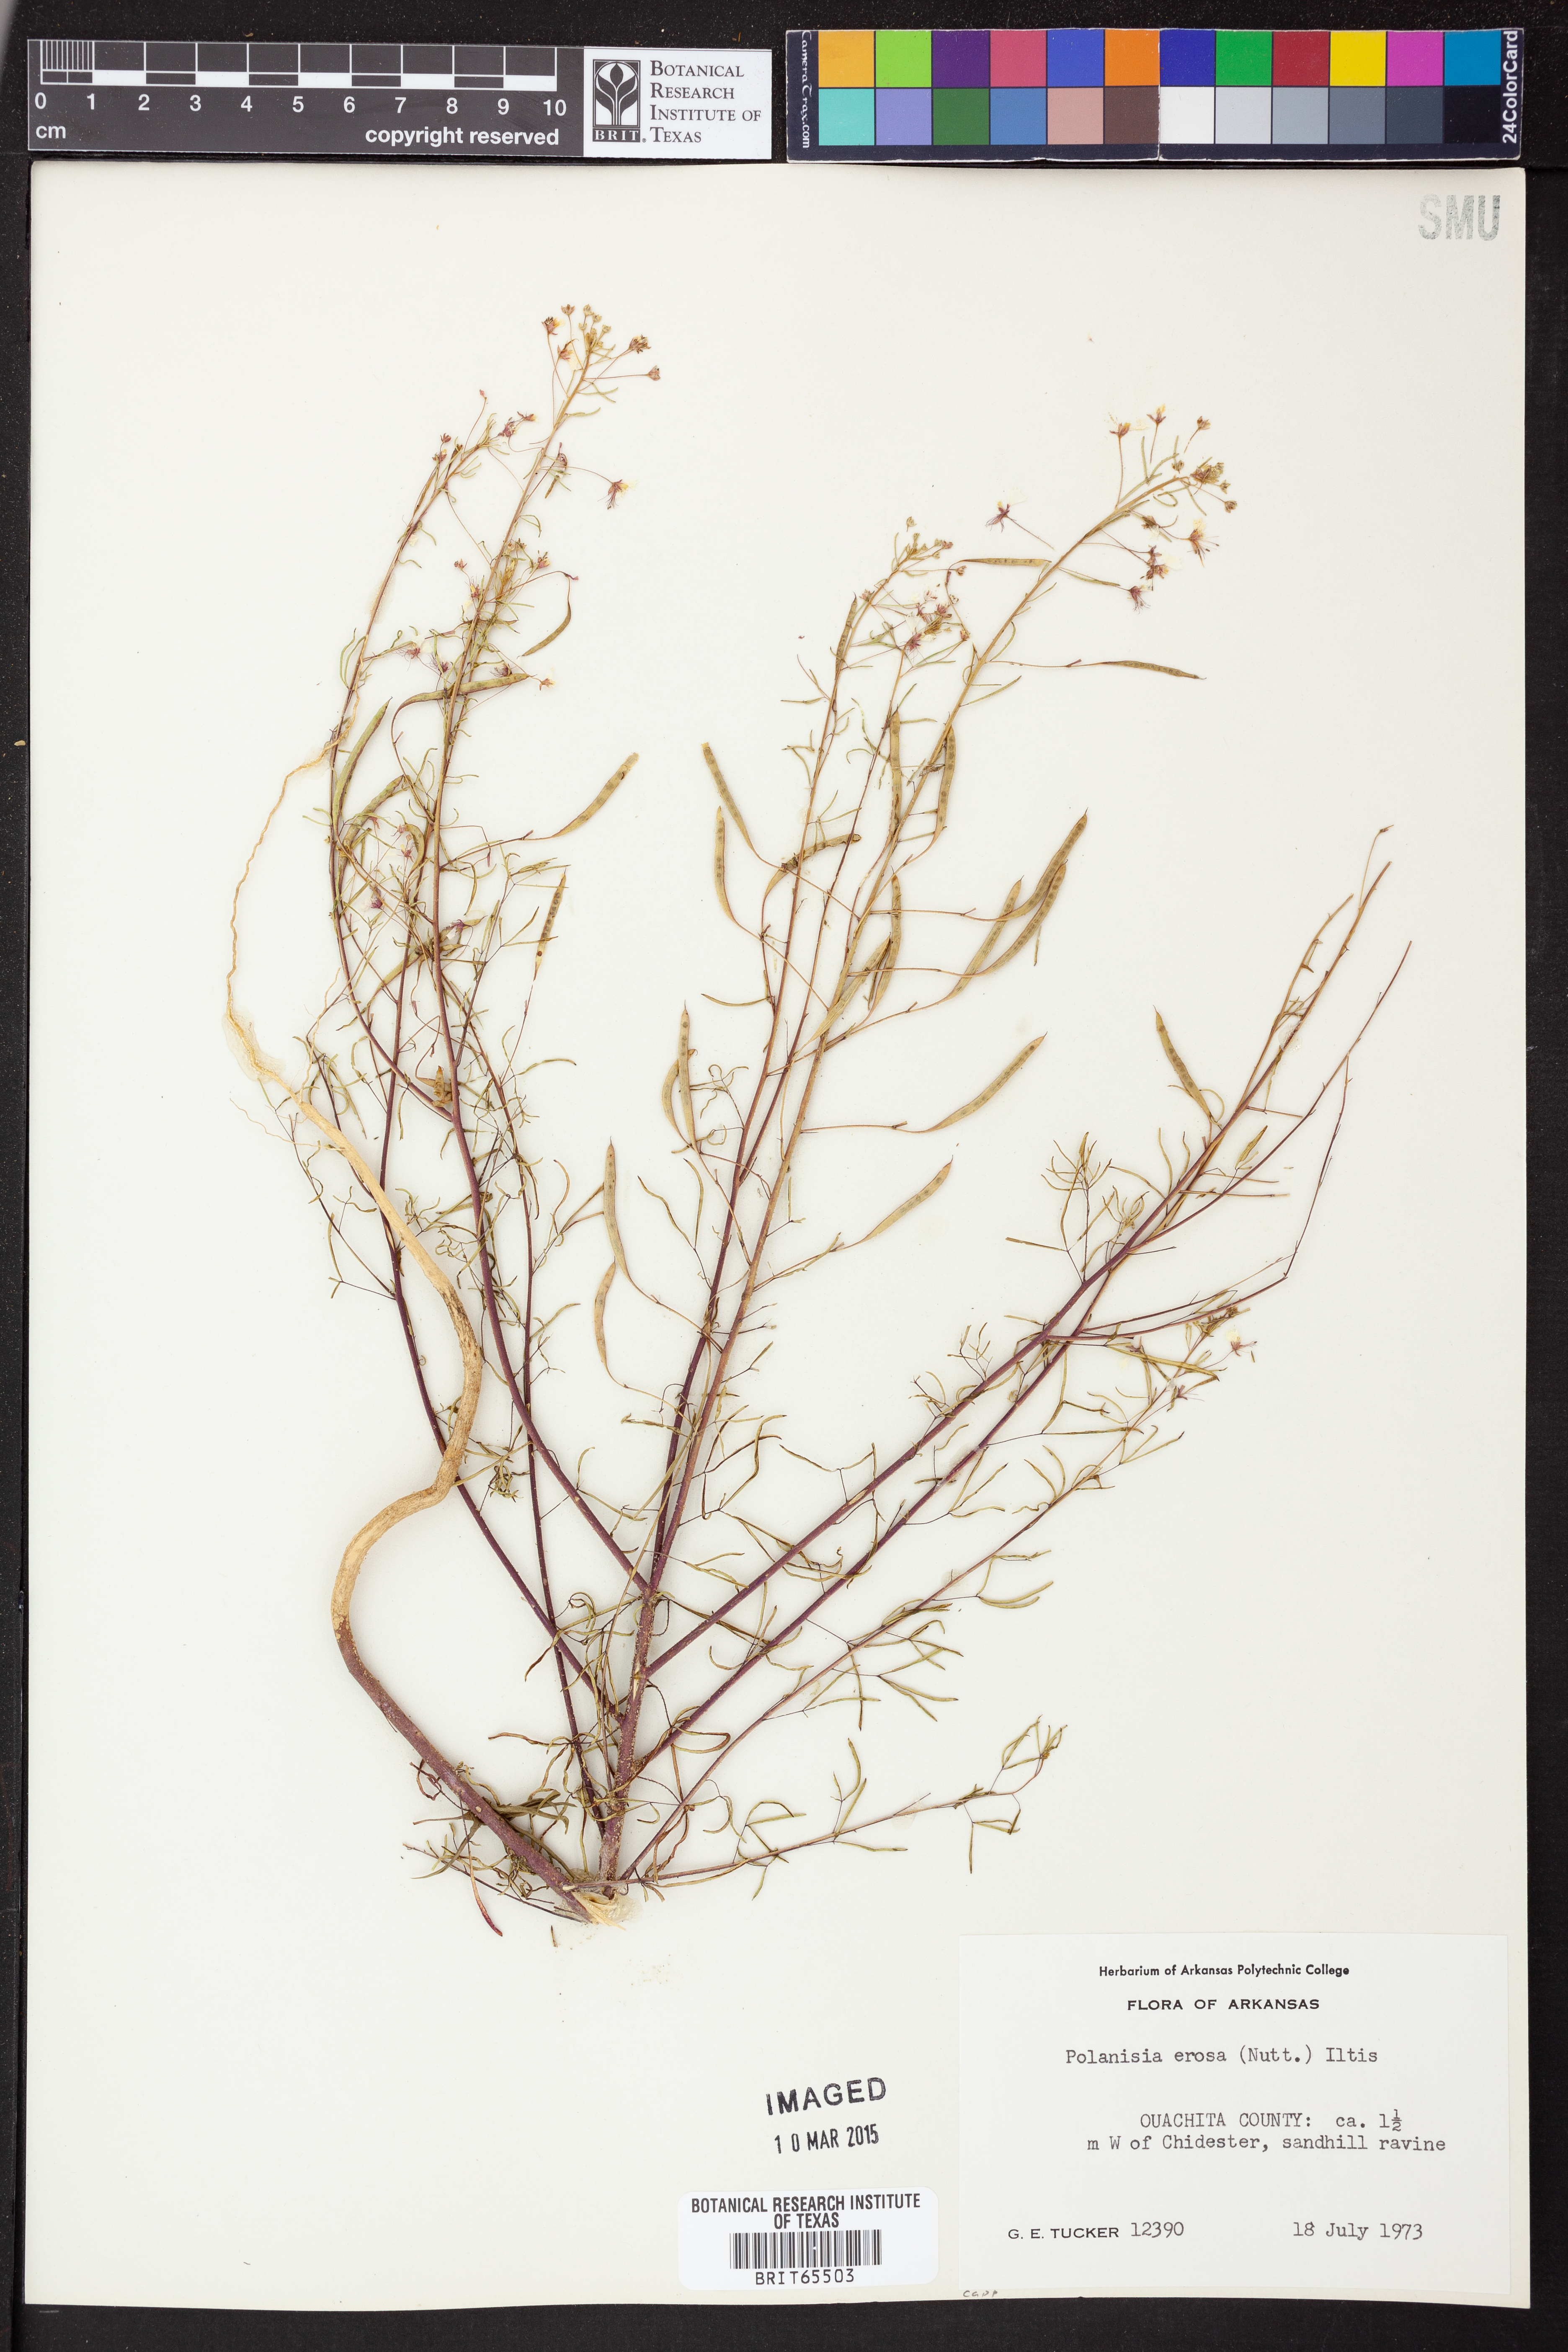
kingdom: Plantae
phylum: Tracheophyta
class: Magnoliopsida
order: Brassicales
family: Cleomaceae
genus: Polanisia
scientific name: Polanisia
